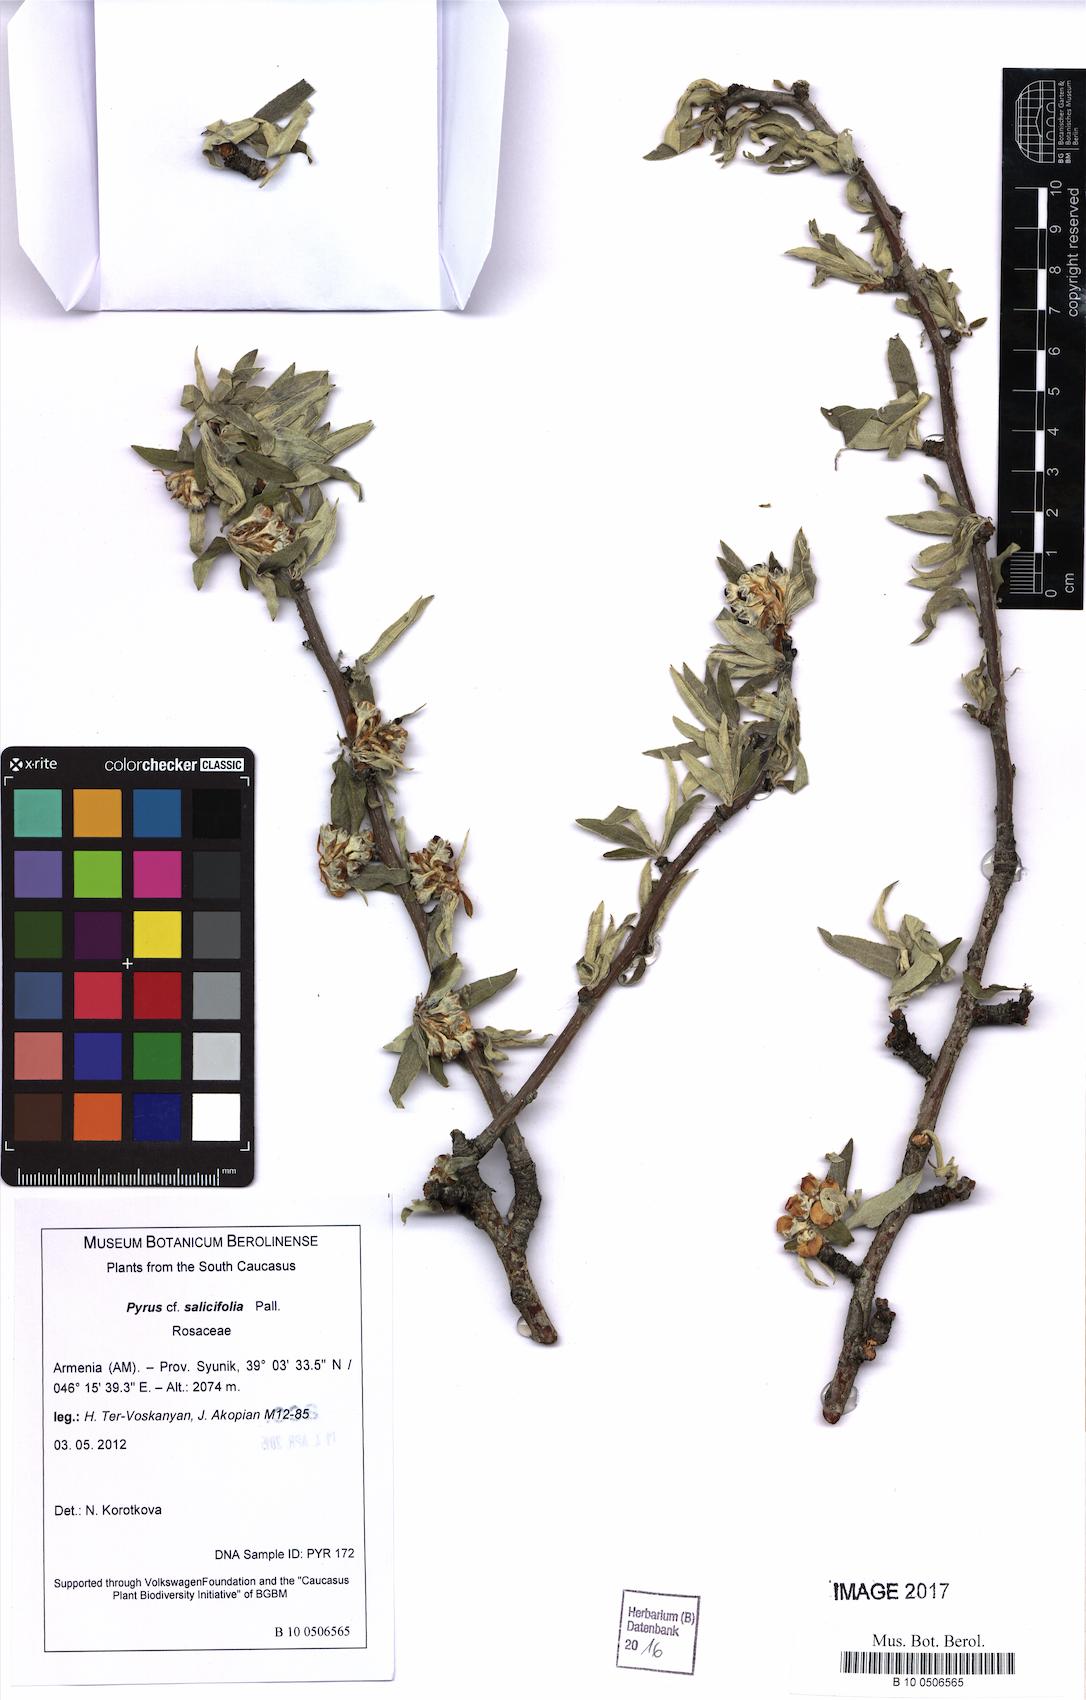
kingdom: Plantae
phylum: Tracheophyta
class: Magnoliopsida
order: Rosales
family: Rosaceae
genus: Pyrus
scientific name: Pyrus salicifolia
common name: Willow-leaved pear
